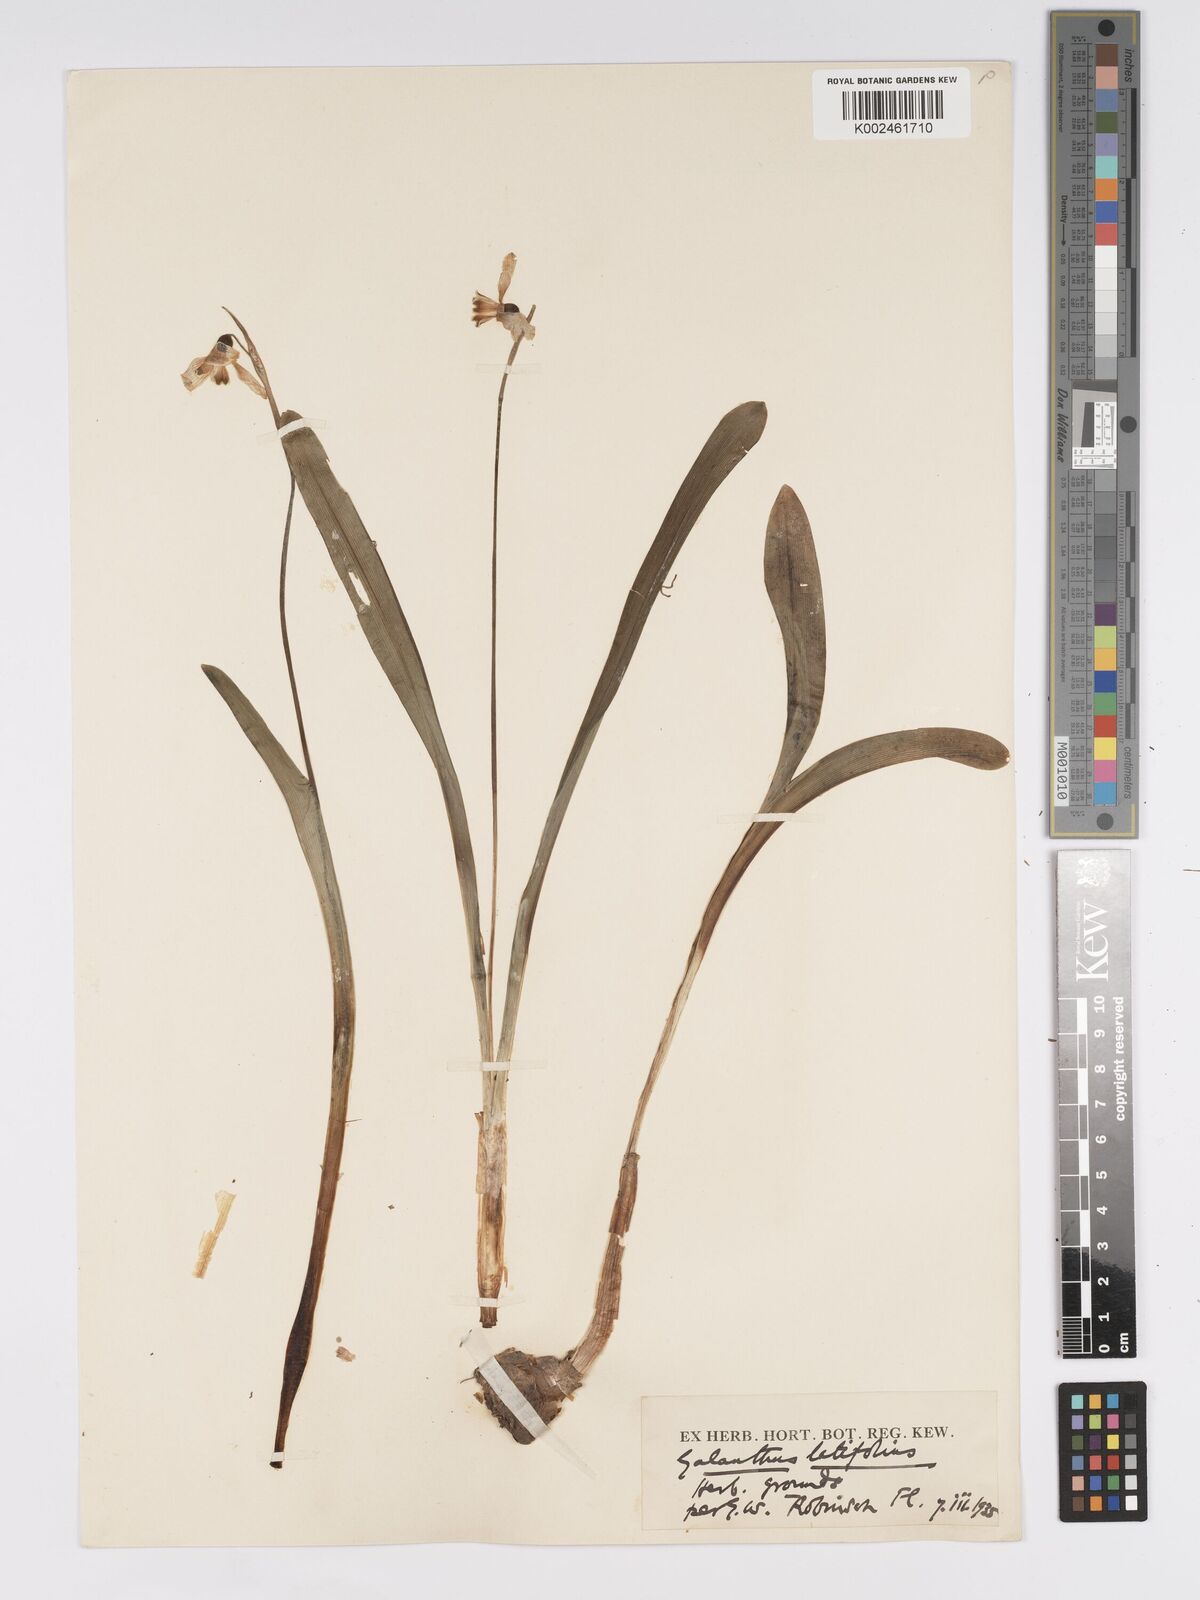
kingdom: Plantae
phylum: Tracheophyta
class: Liliopsida
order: Asparagales
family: Amaryllidaceae
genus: Galanthus
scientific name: Galanthus platyphyllus
